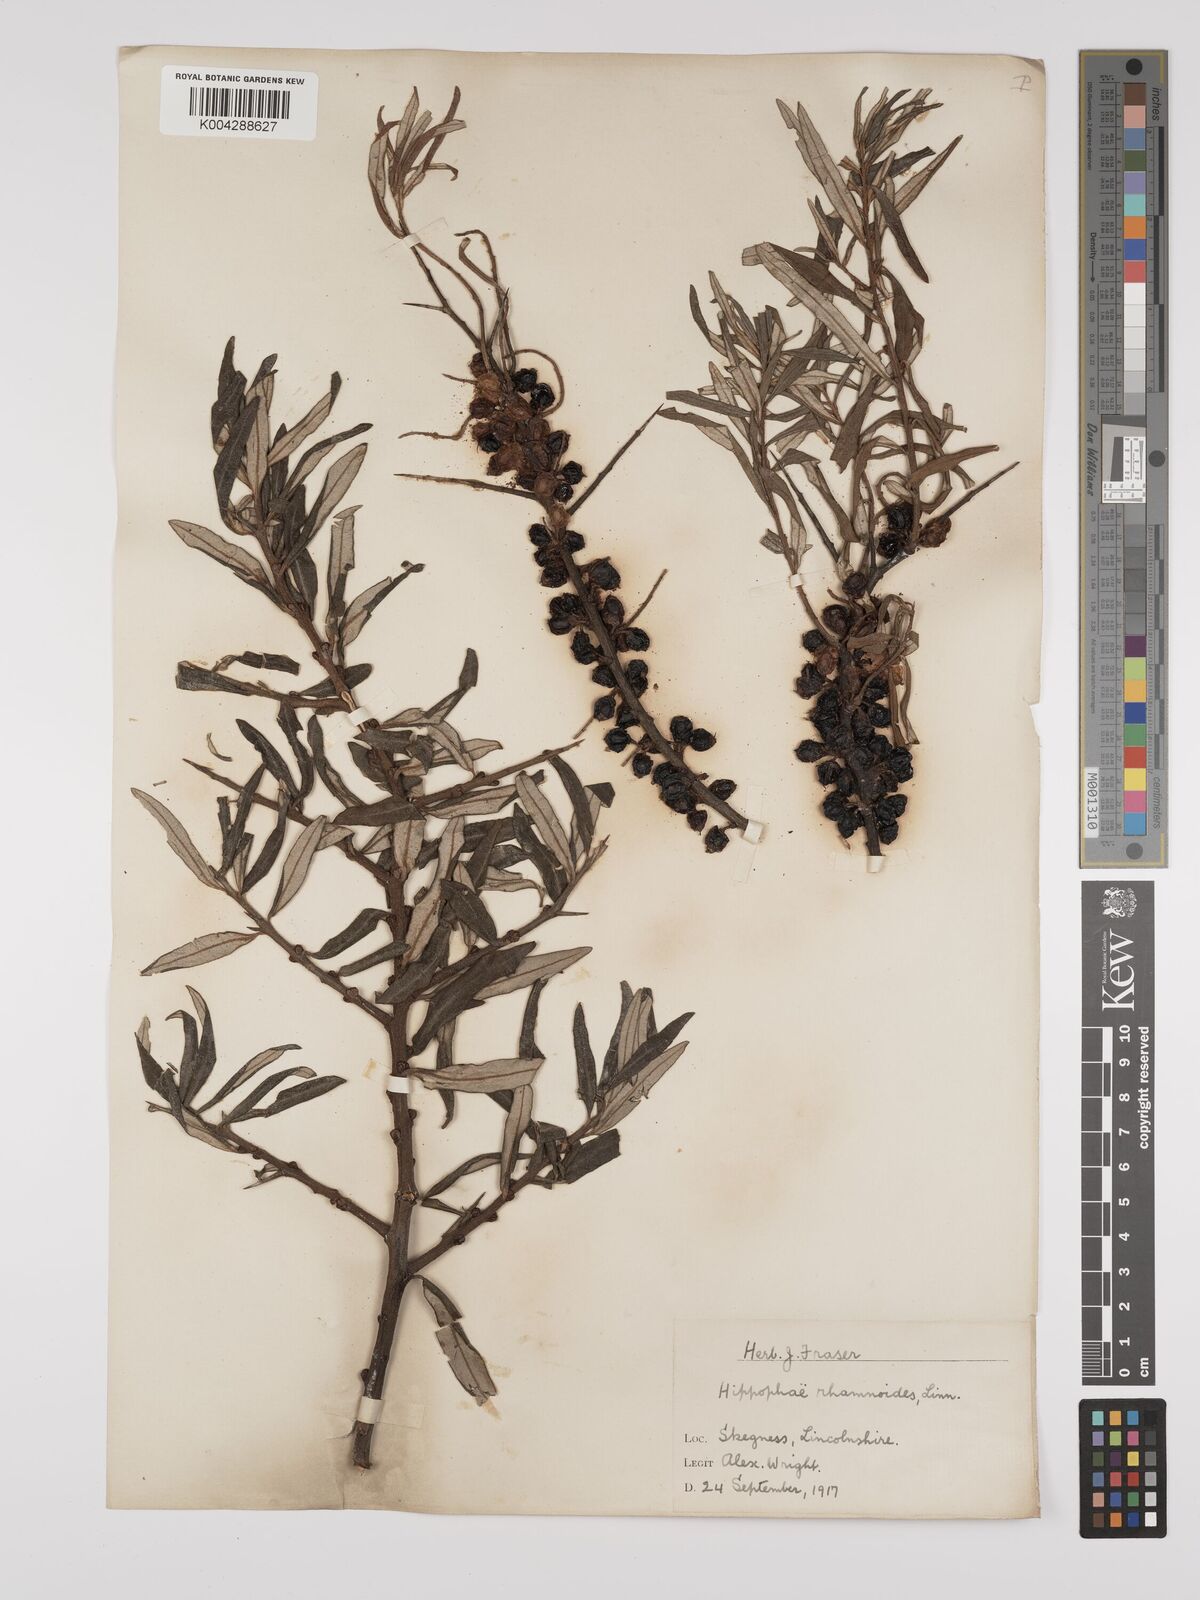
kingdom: Plantae
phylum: Tracheophyta
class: Magnoliopsida
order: Rosales
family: Elaeagnaceae
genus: Hippophae
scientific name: Hippophae rhamnoides
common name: Sea-buckthorn
